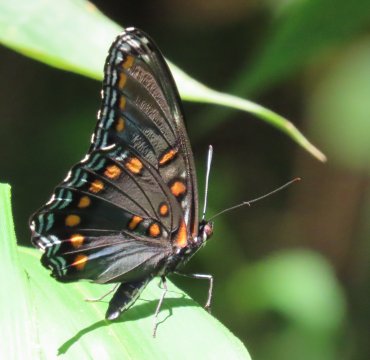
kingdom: Animalia
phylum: Arthropoda
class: Insecta
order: Lepidoptera
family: Nymphalidae
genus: Limenitis
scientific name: Limenitis arthemis
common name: Red-spotted Admiral
